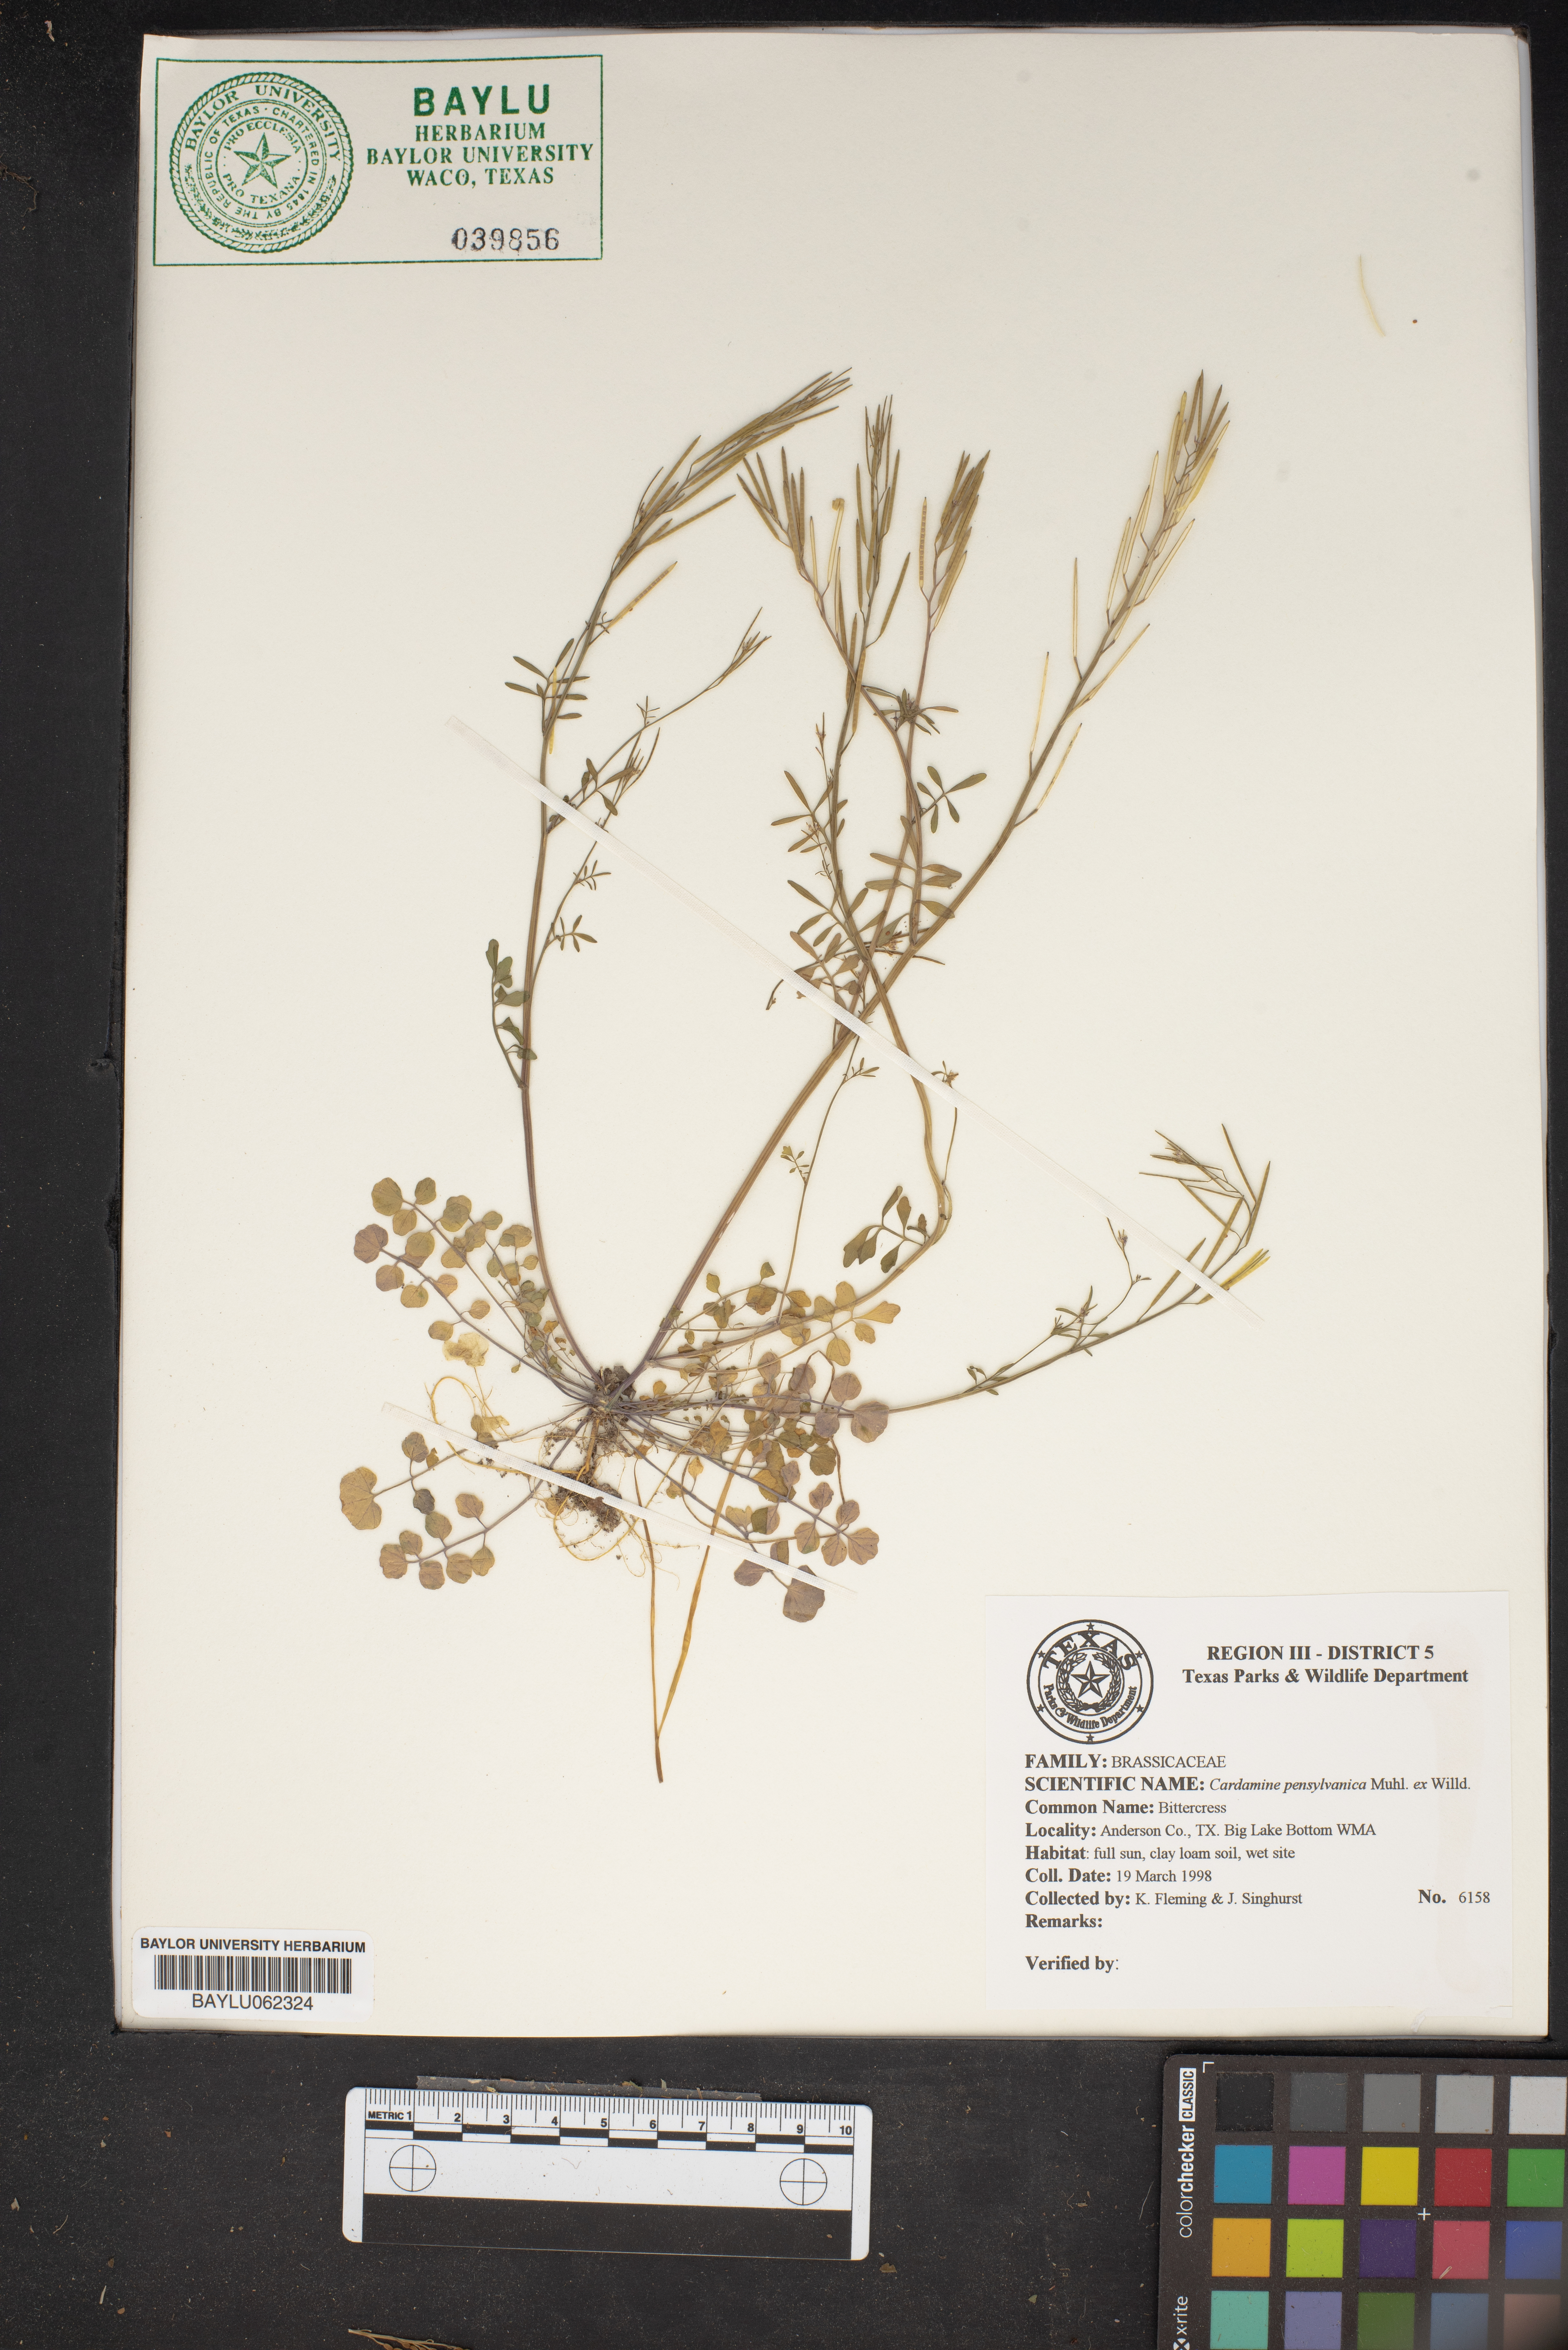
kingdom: Plantae
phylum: Tracheophyta
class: Magnoliopsida
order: Brassicales
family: Brassicaceae
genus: Cardamine
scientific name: Cardamine pensylvanica
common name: Pennsylvania bittercress
